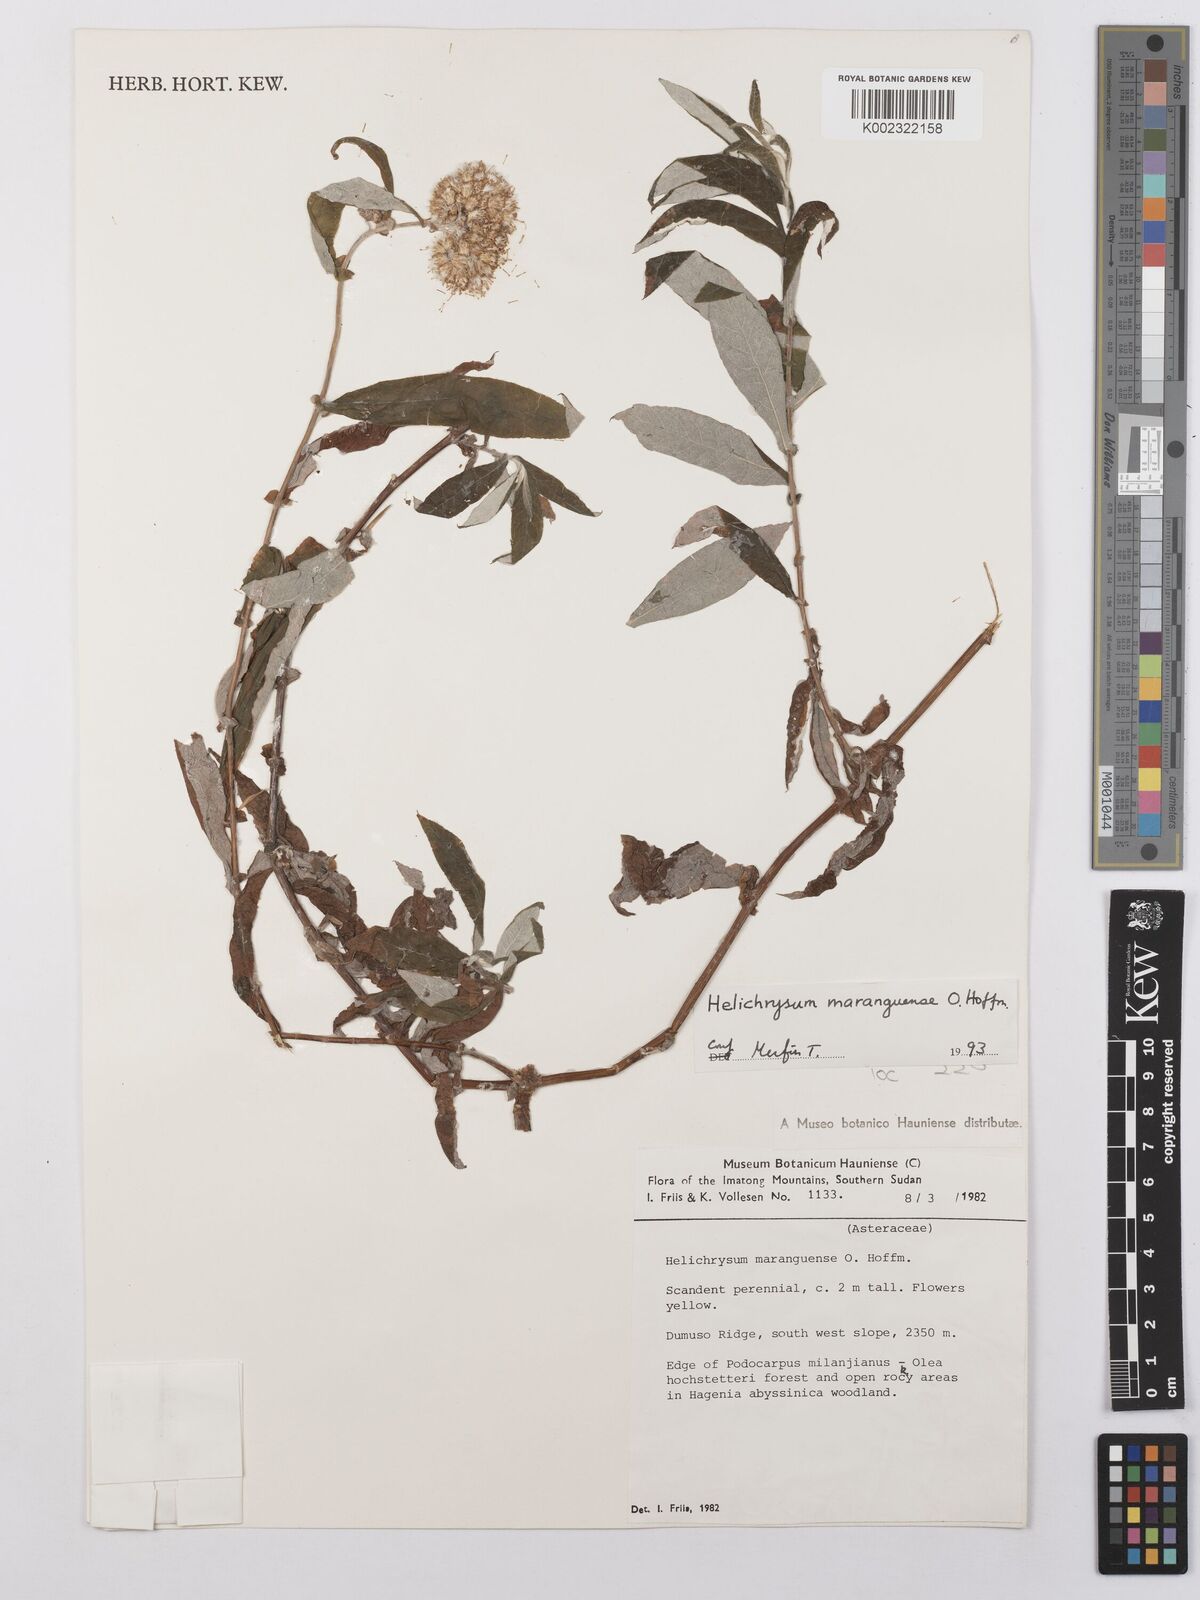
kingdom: Plantae
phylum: Tracheophyta
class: Magnoliopsida
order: Asterales
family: Asteraceae
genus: Helichrysum
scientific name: Helichrysum maranguense
